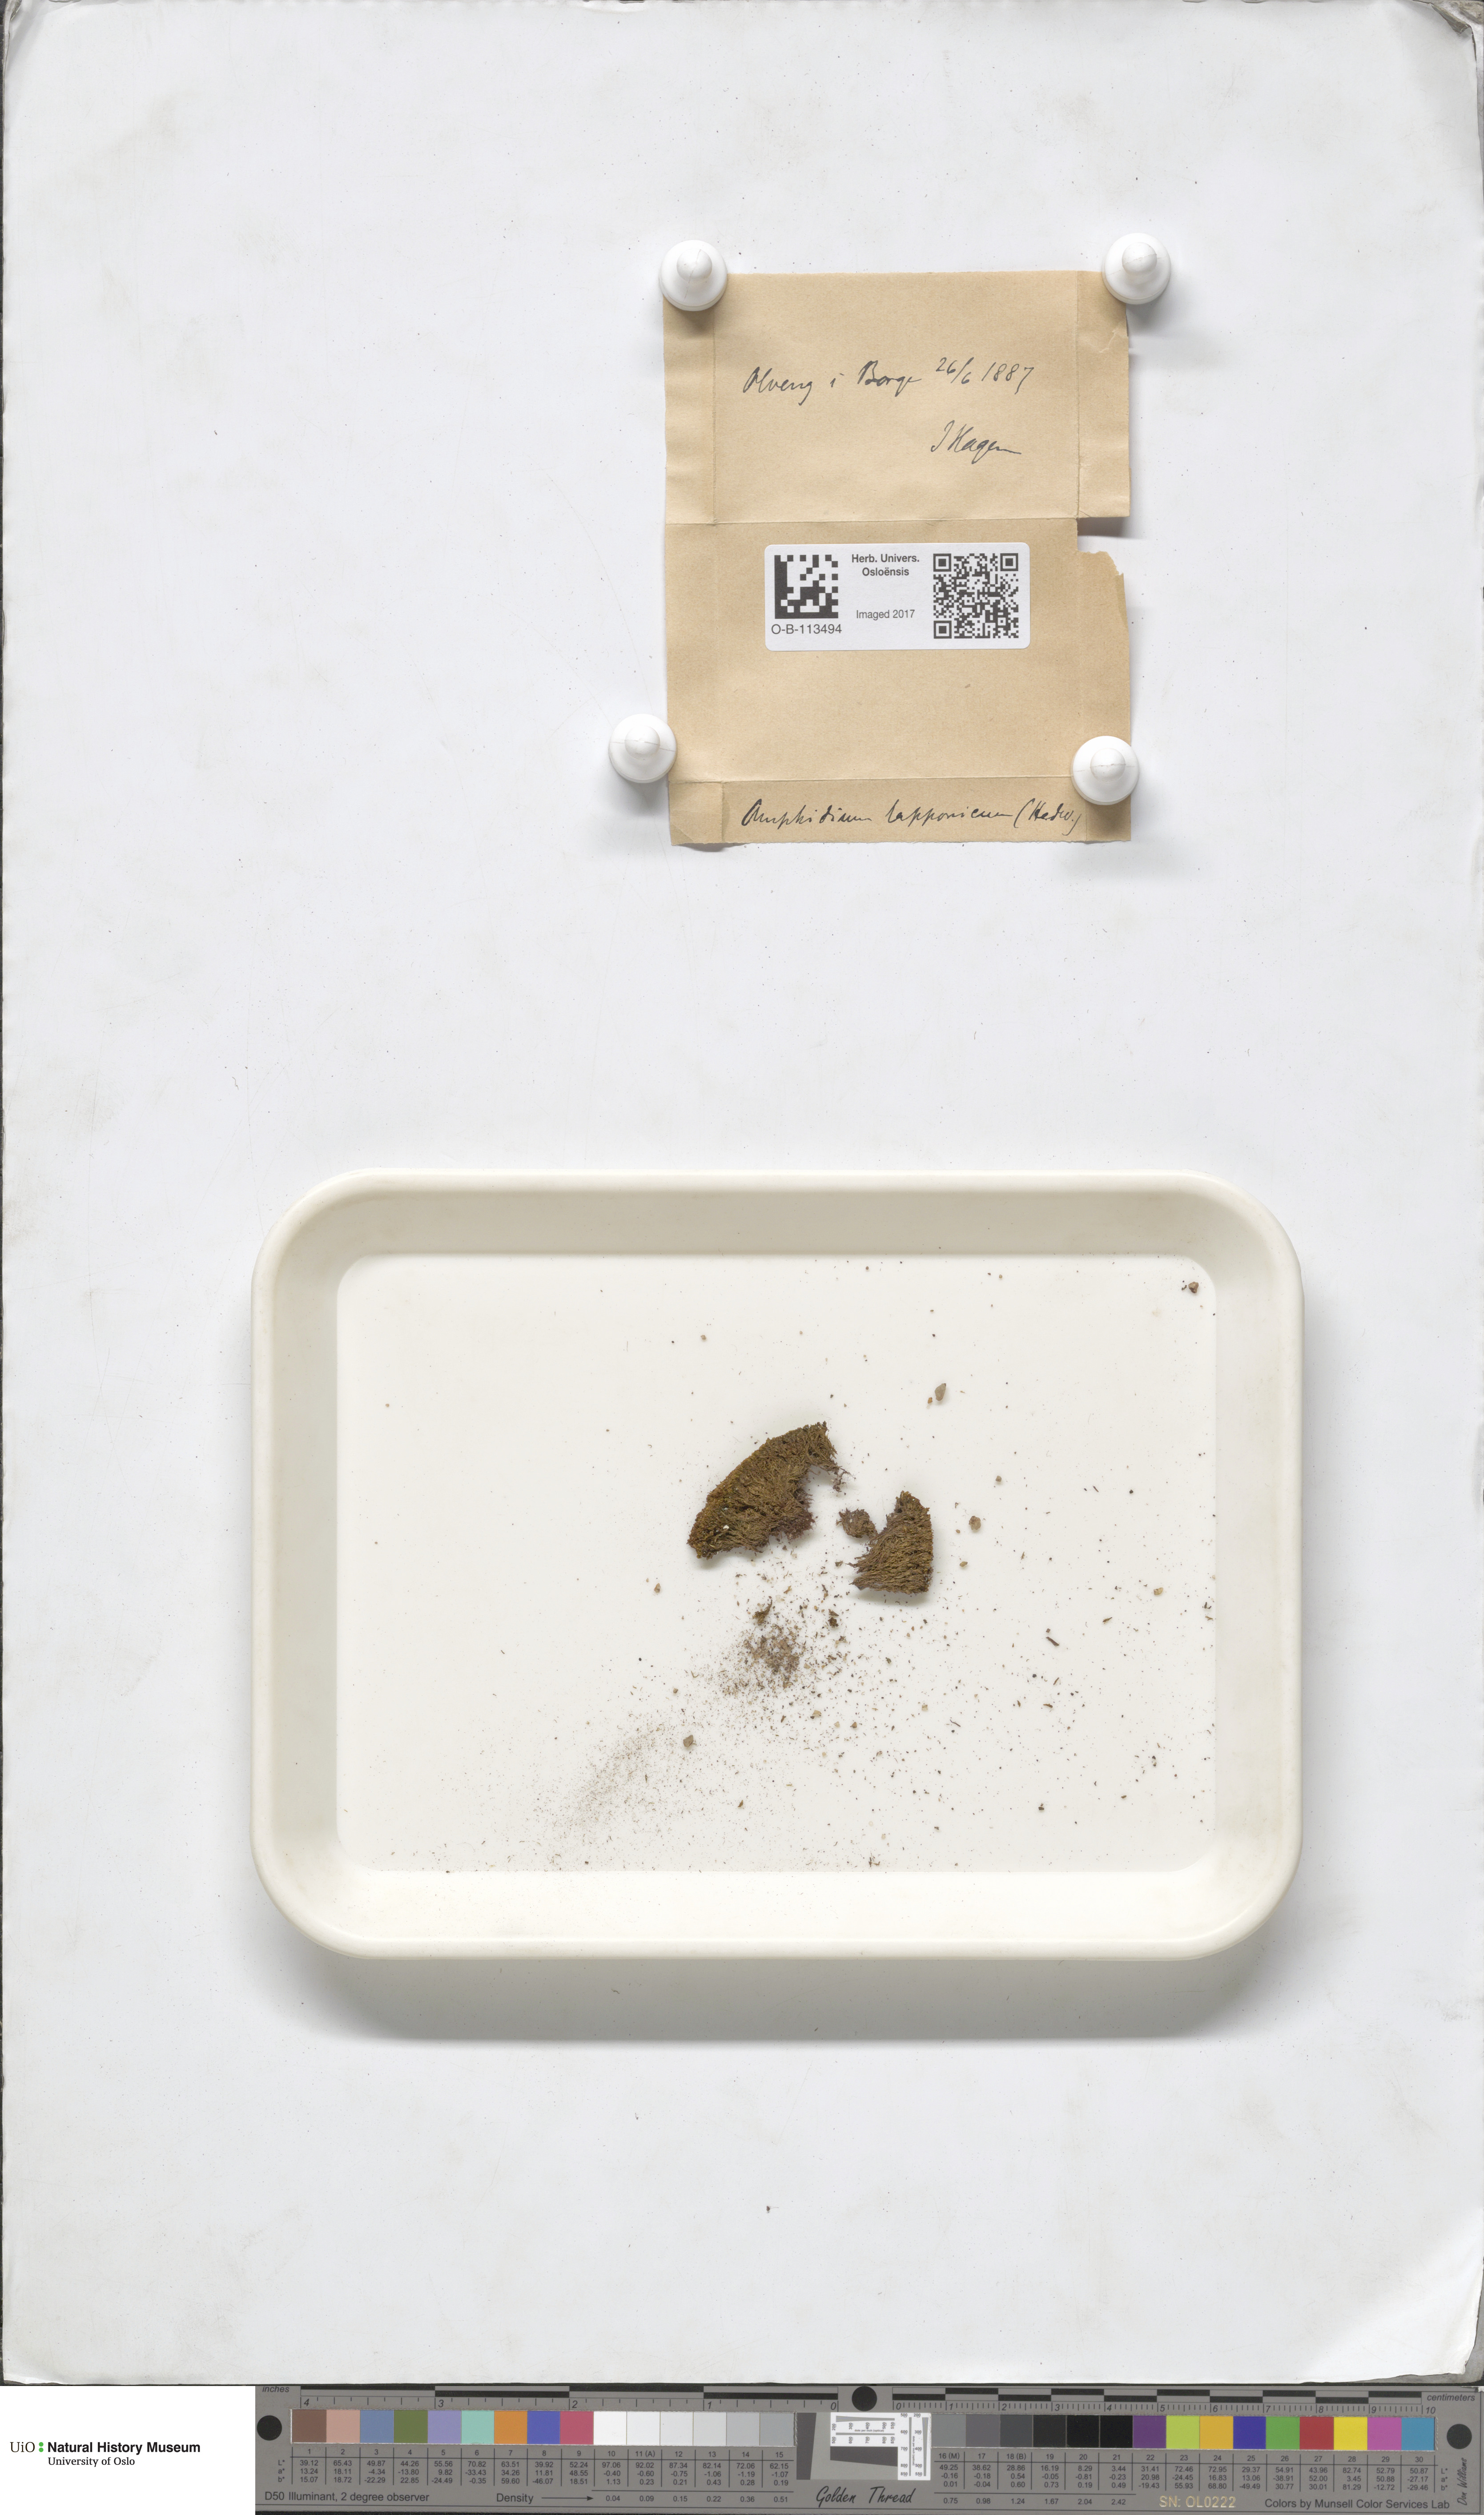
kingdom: Plantae
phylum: Bryophyta
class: Bryopsida
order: Dicranales
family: Amphidiaceae
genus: Amphidium
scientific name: Amphidium lapponicum
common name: Lapland yoke moss
